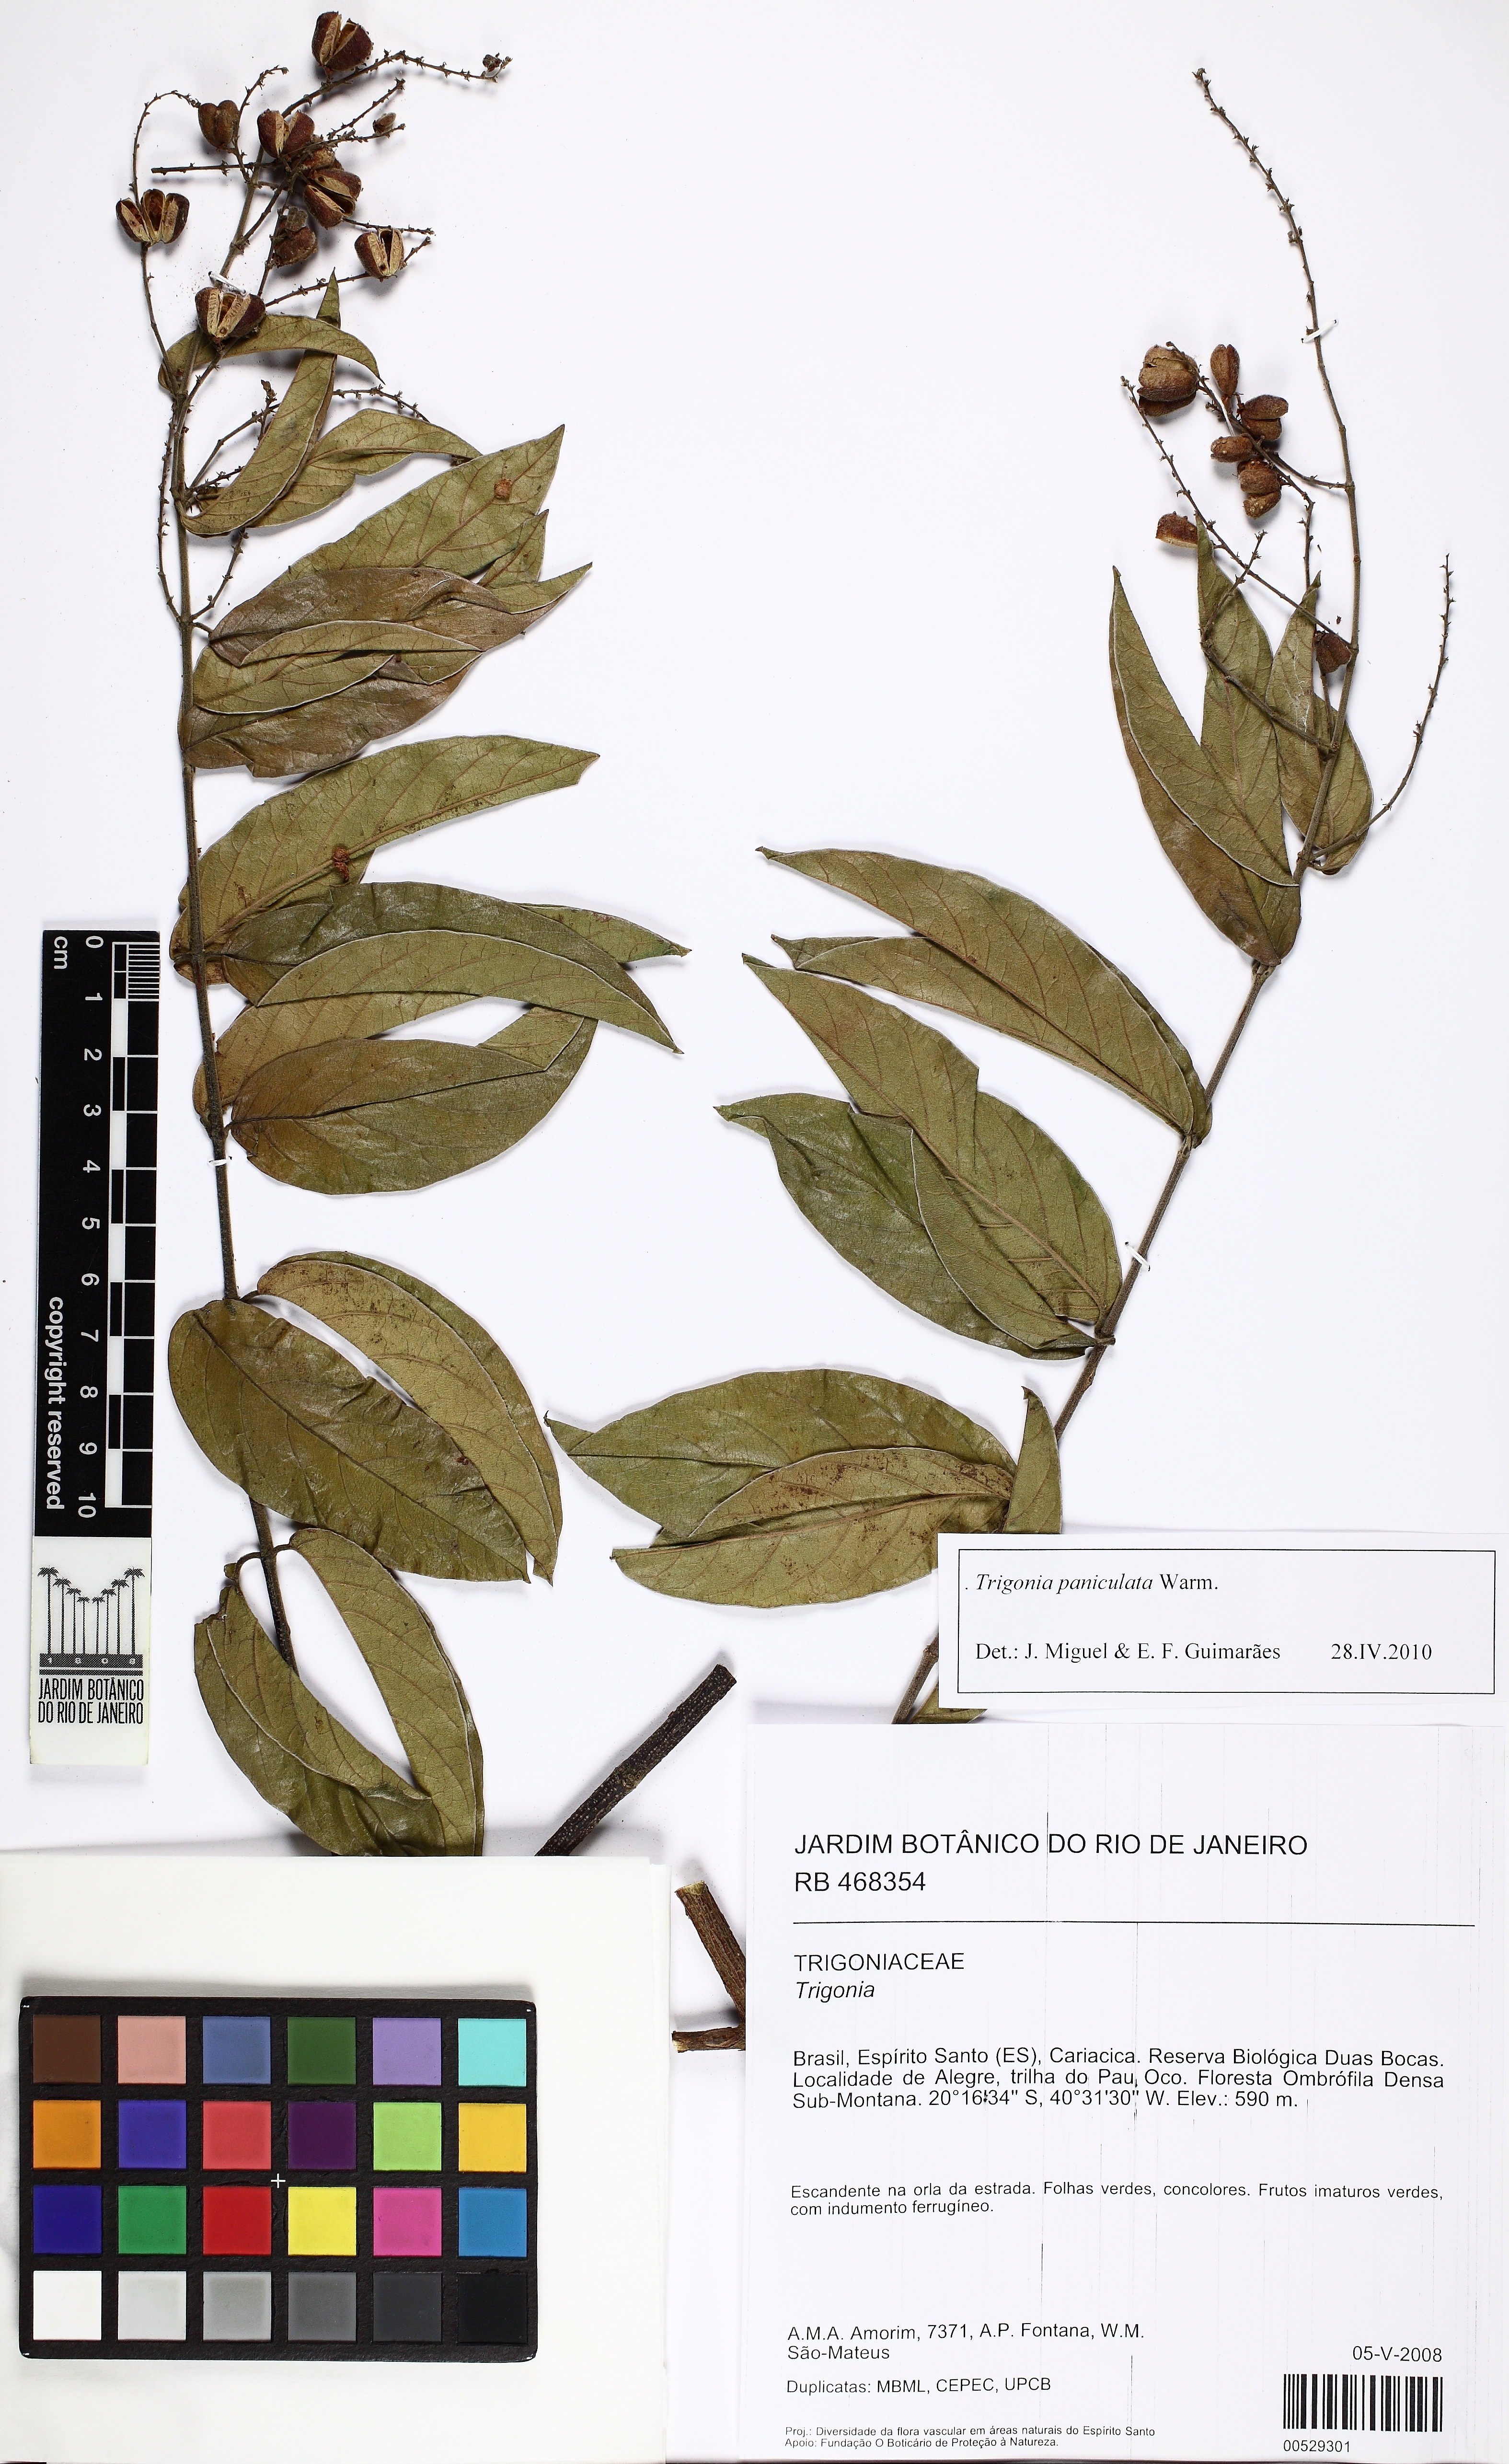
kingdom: Plantae
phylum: Tracheophyta
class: Magnoliopsida
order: Malpighiales
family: Trigoniaceae
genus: Trigonia
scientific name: Trigonia paniculata
